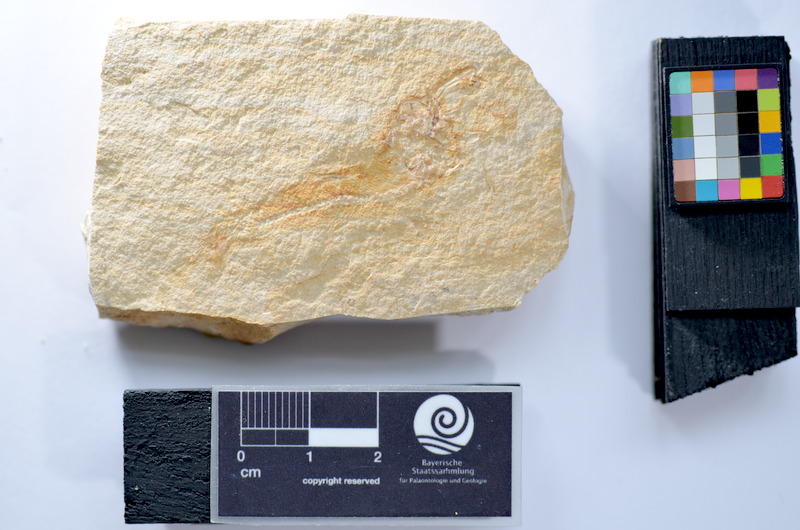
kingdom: Animalia
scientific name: Animalia
